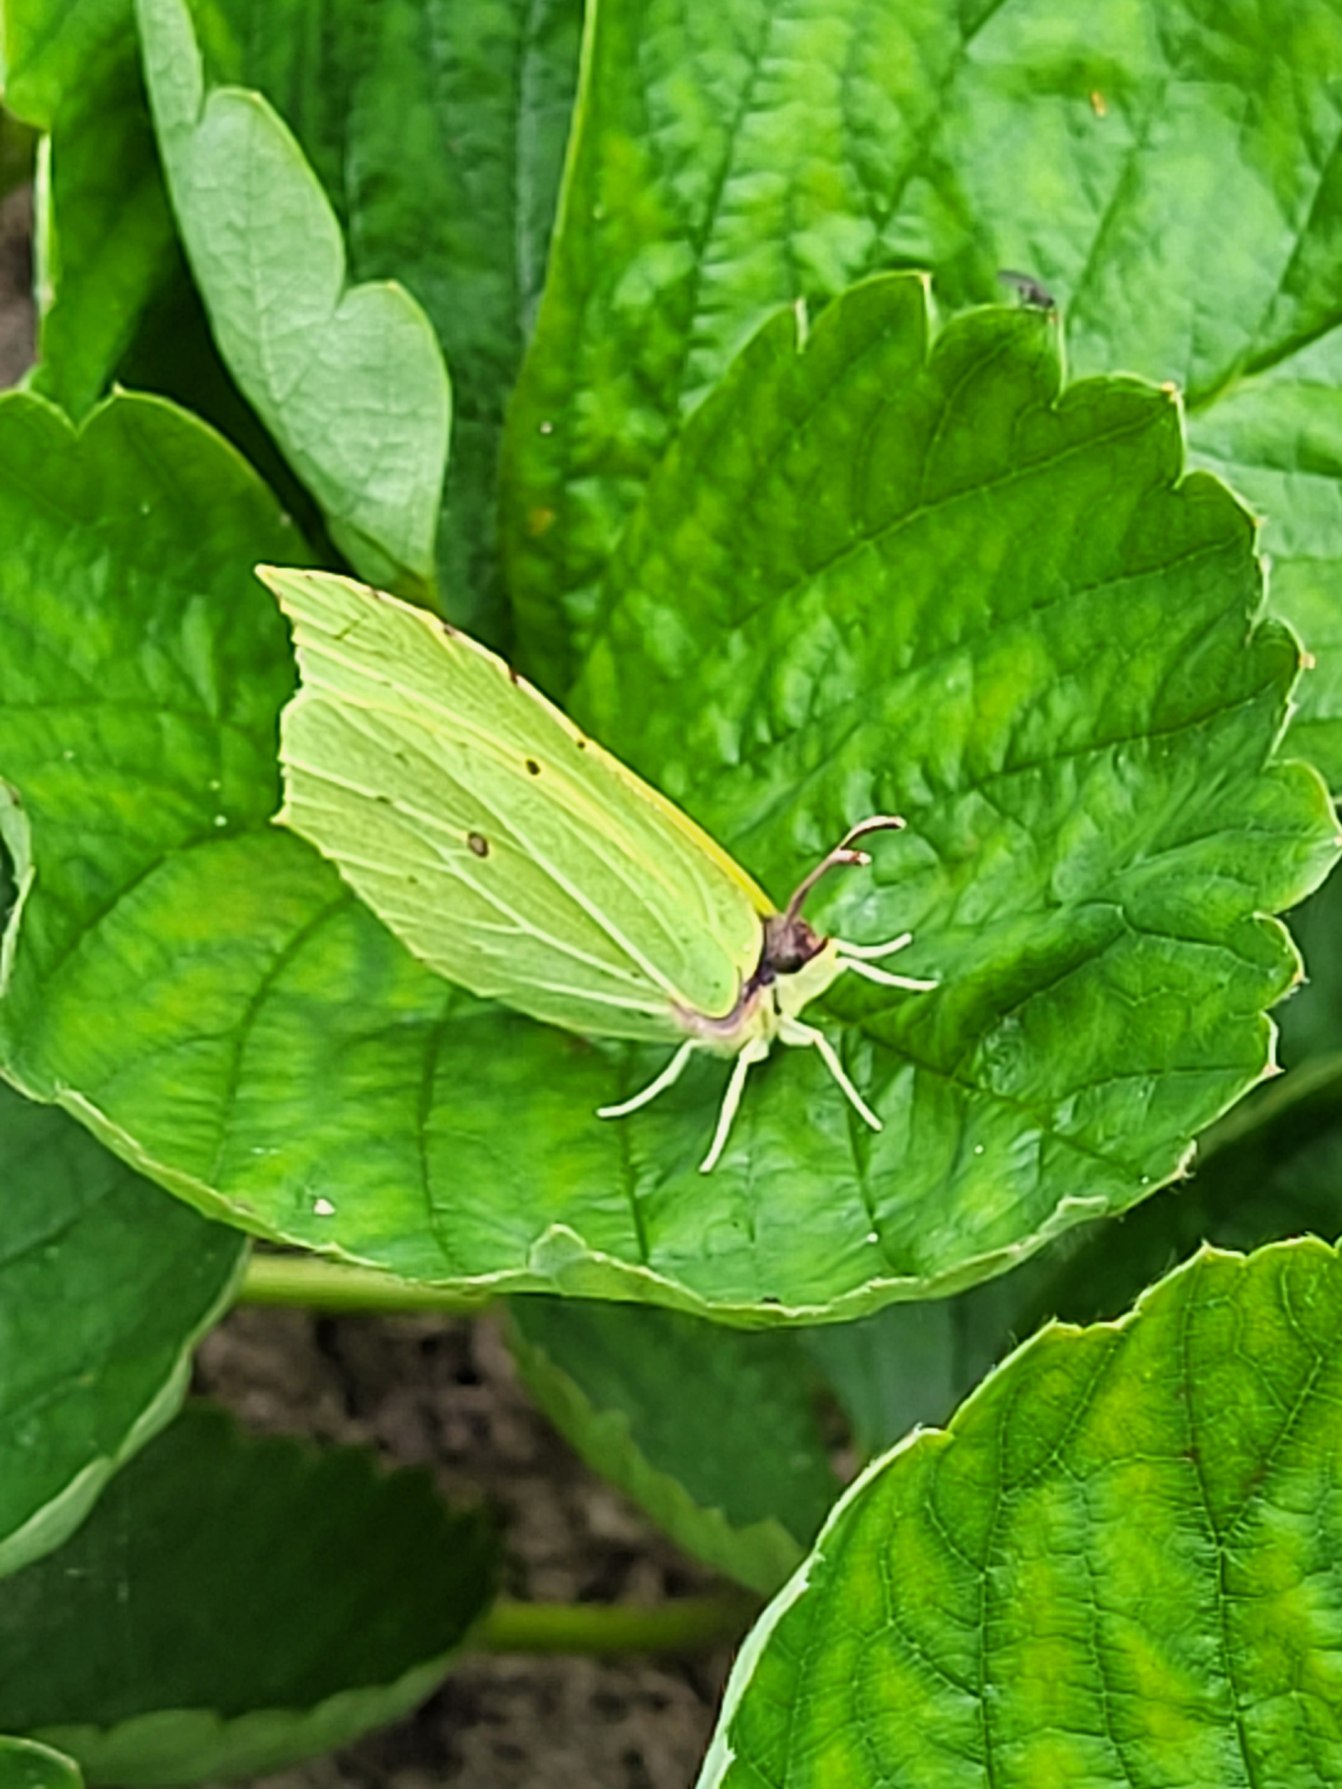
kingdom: Animalia
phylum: Arthropoda
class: Insecta
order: Lepidoptera
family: Pieridae
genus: Gonepteryx
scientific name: Gonepteryx rhamni
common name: Citronsommerfugl
